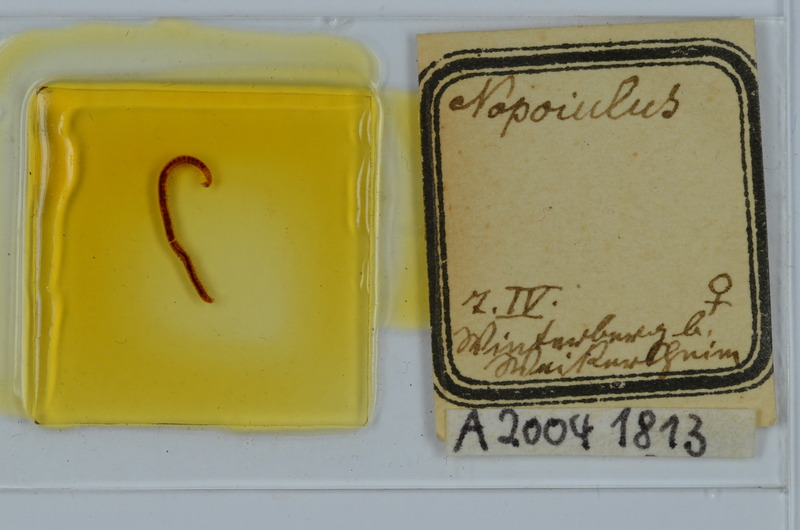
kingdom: Animalia
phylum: Arthropoda
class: Diplopoda
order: Julida
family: Blaniulidae
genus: Nopoiulus
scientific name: Nopoiulus
